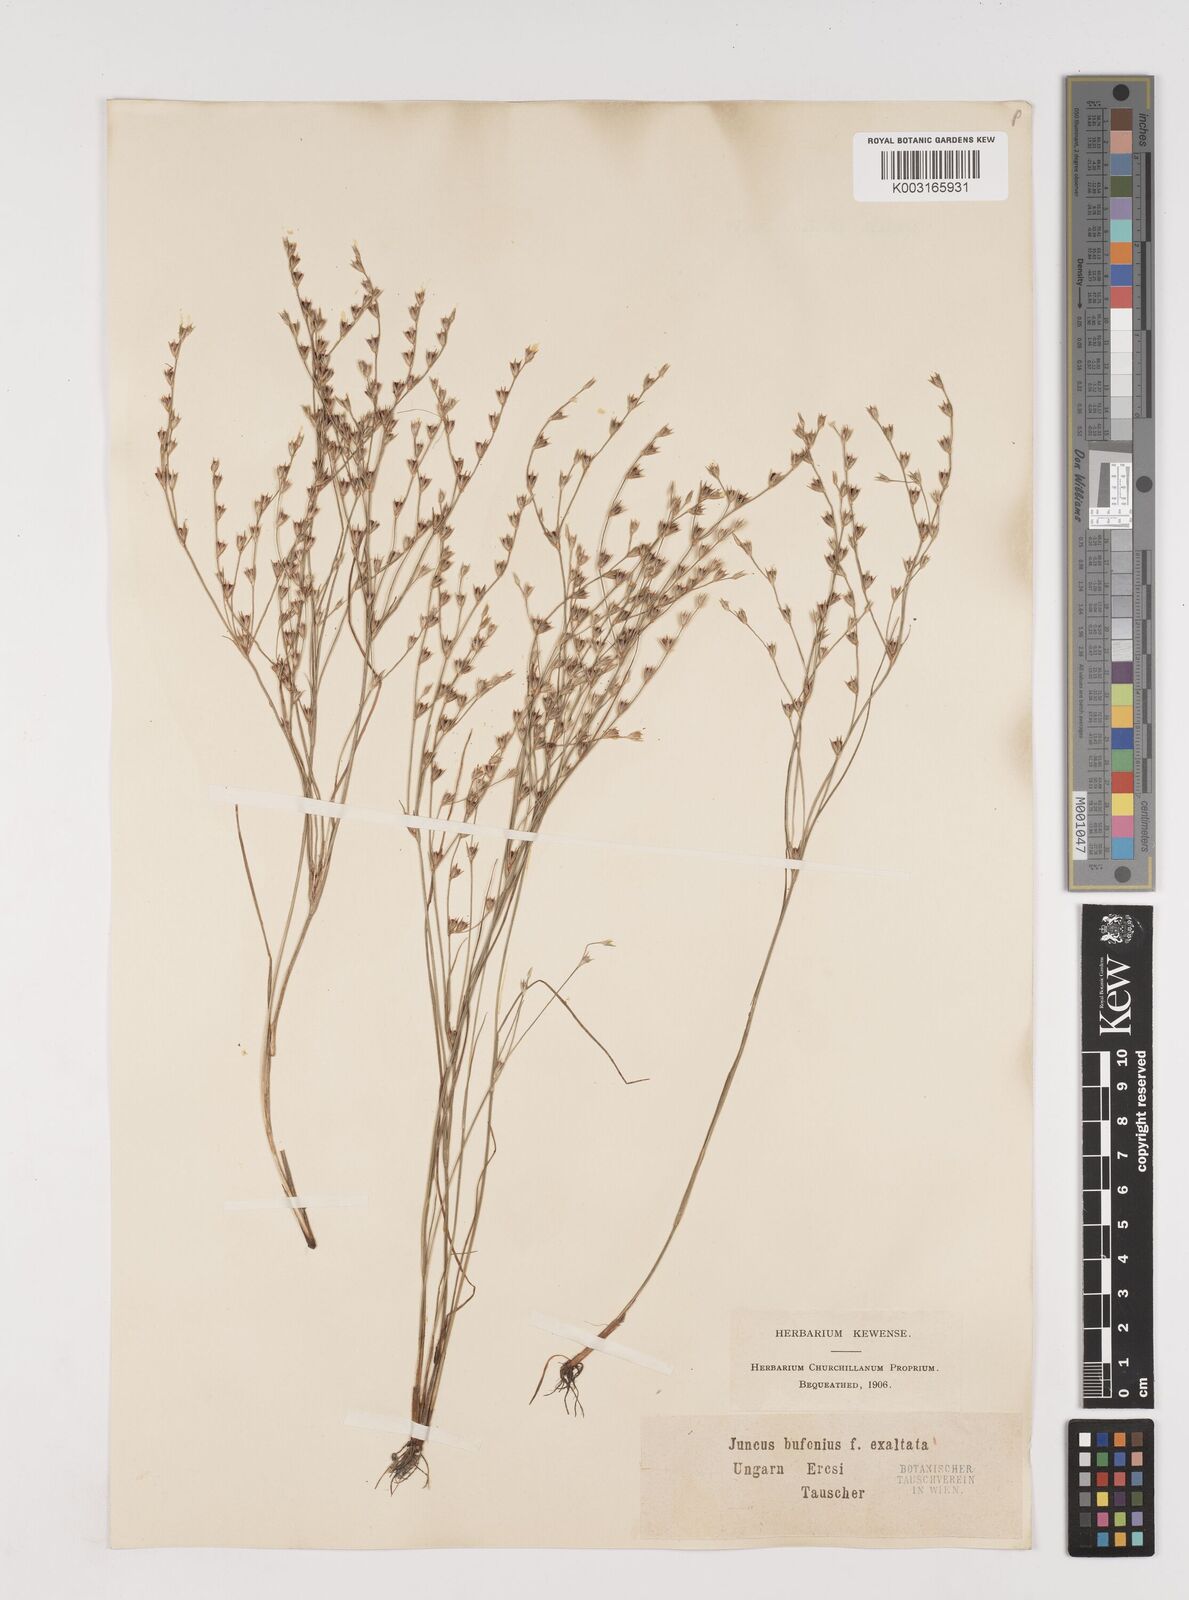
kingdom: Plantae
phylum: Tracheophyta
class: Liliopsida
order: Poales
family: Juncaceae
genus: Juncus
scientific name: Juncus bufonius
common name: Toad rush
